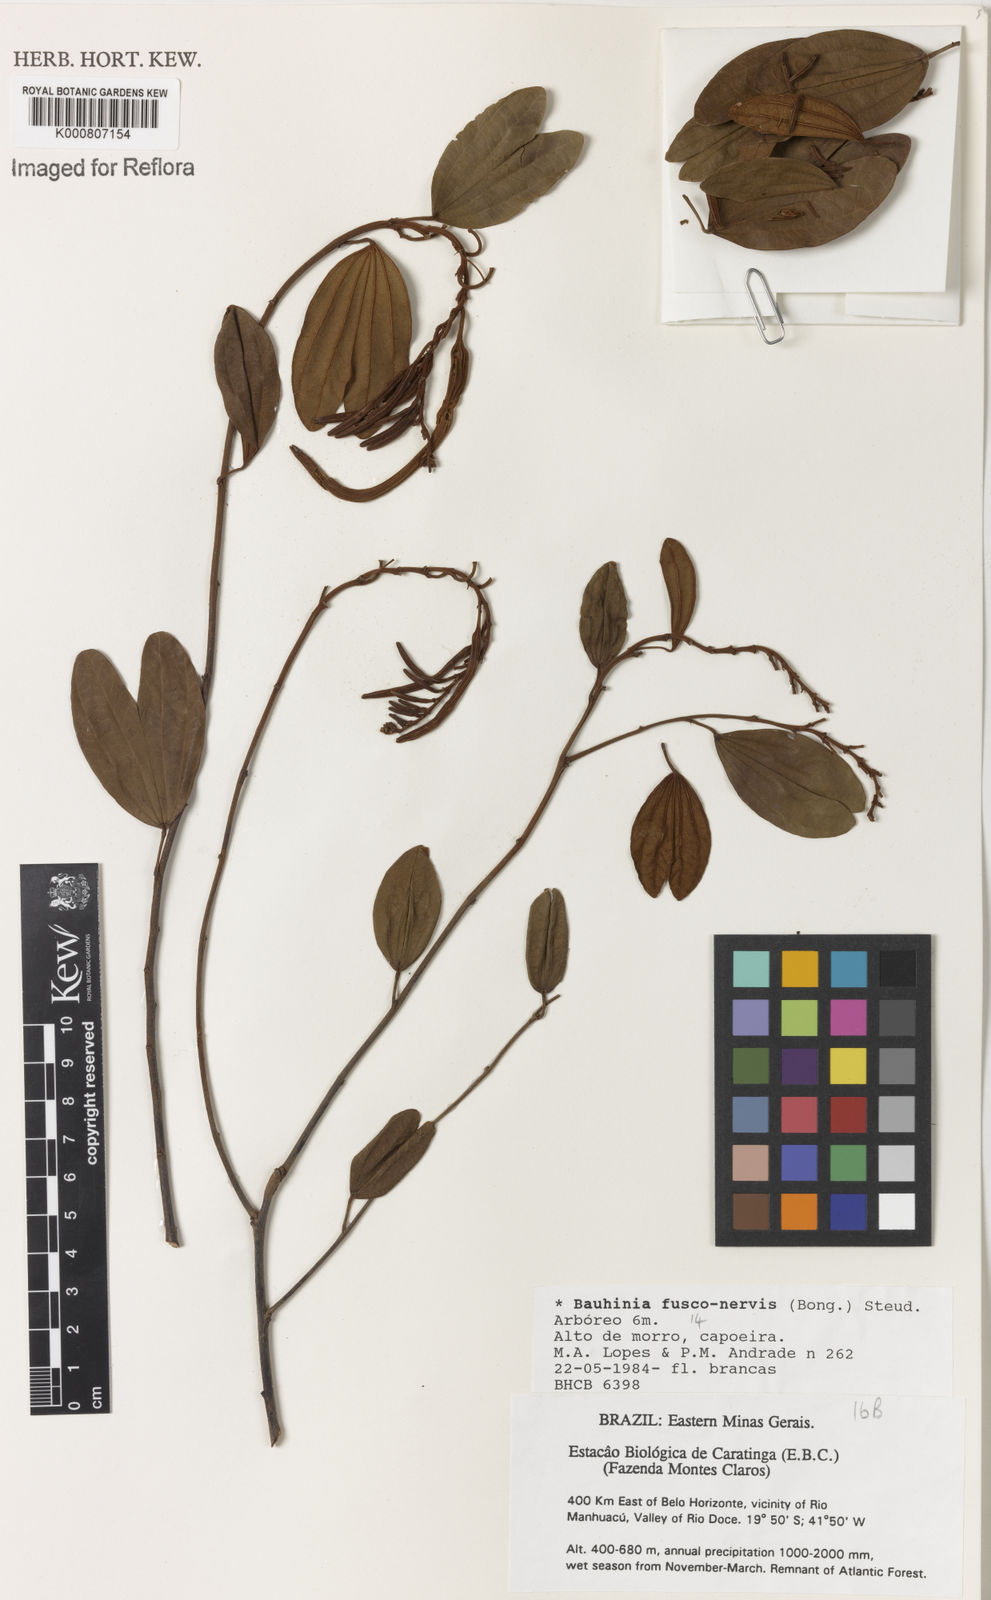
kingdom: Plantae
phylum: Tracheophyta
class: Magnoliopsida
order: Fabales
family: Fabaceae
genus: Bauhinia
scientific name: Bauhinia
